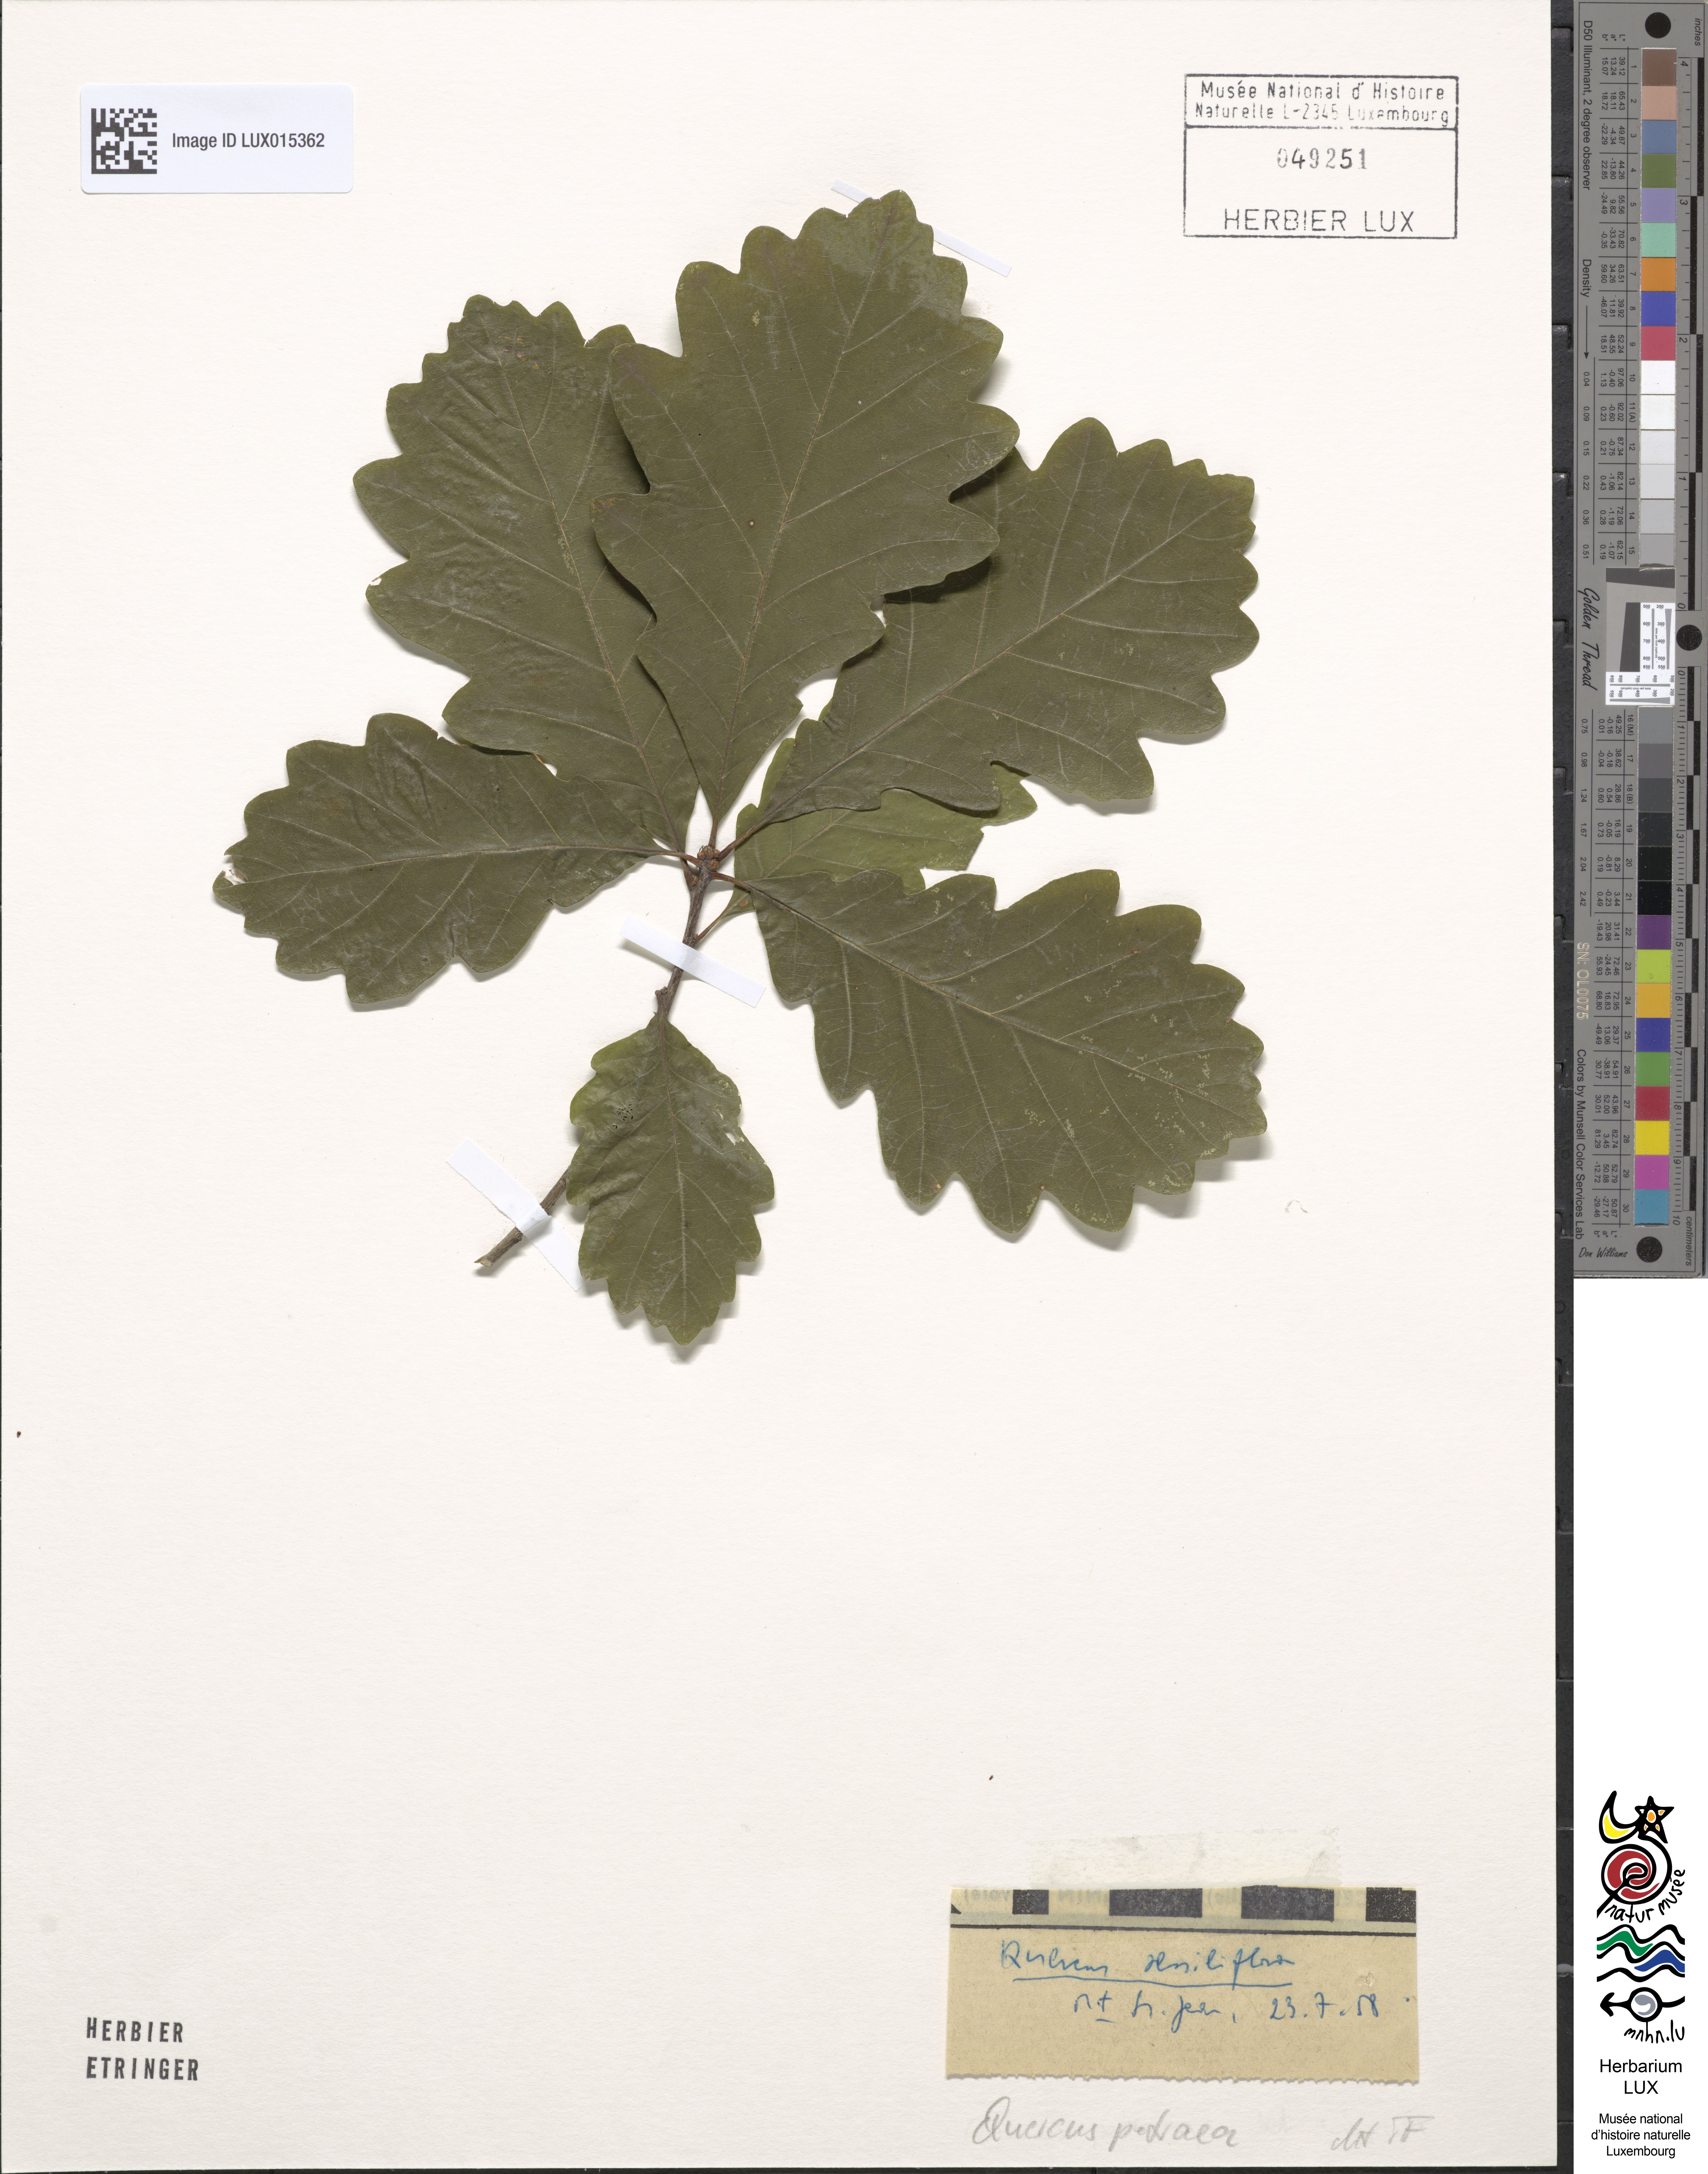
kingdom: Plantae
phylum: Tracheophyta
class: Magnoliopsida
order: Fagales
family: Fagaceae
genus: Quercus
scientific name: Quercus petraea
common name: Sessile oak
